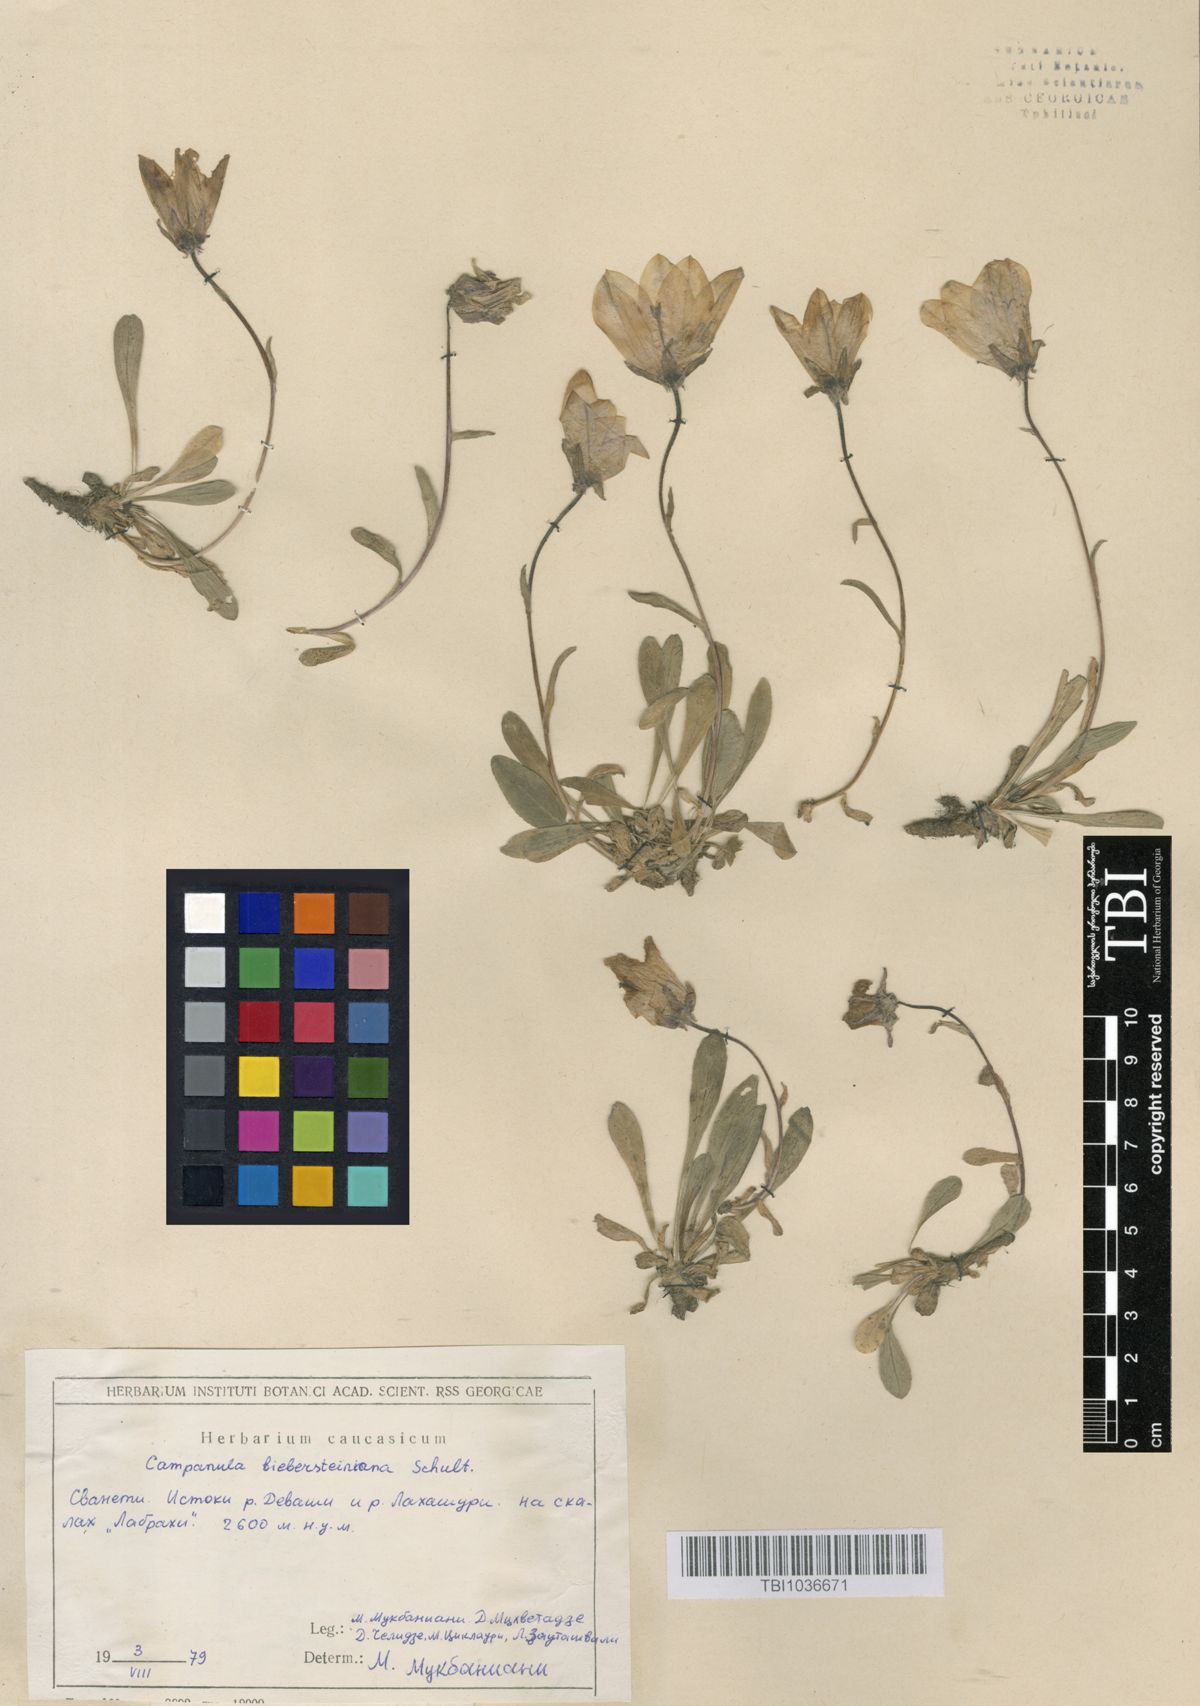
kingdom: Plantae
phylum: Tracheophyta
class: Magnoliopsida
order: Asterales
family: Campanulaceae
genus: Campanula
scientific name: Campanula tridentata
